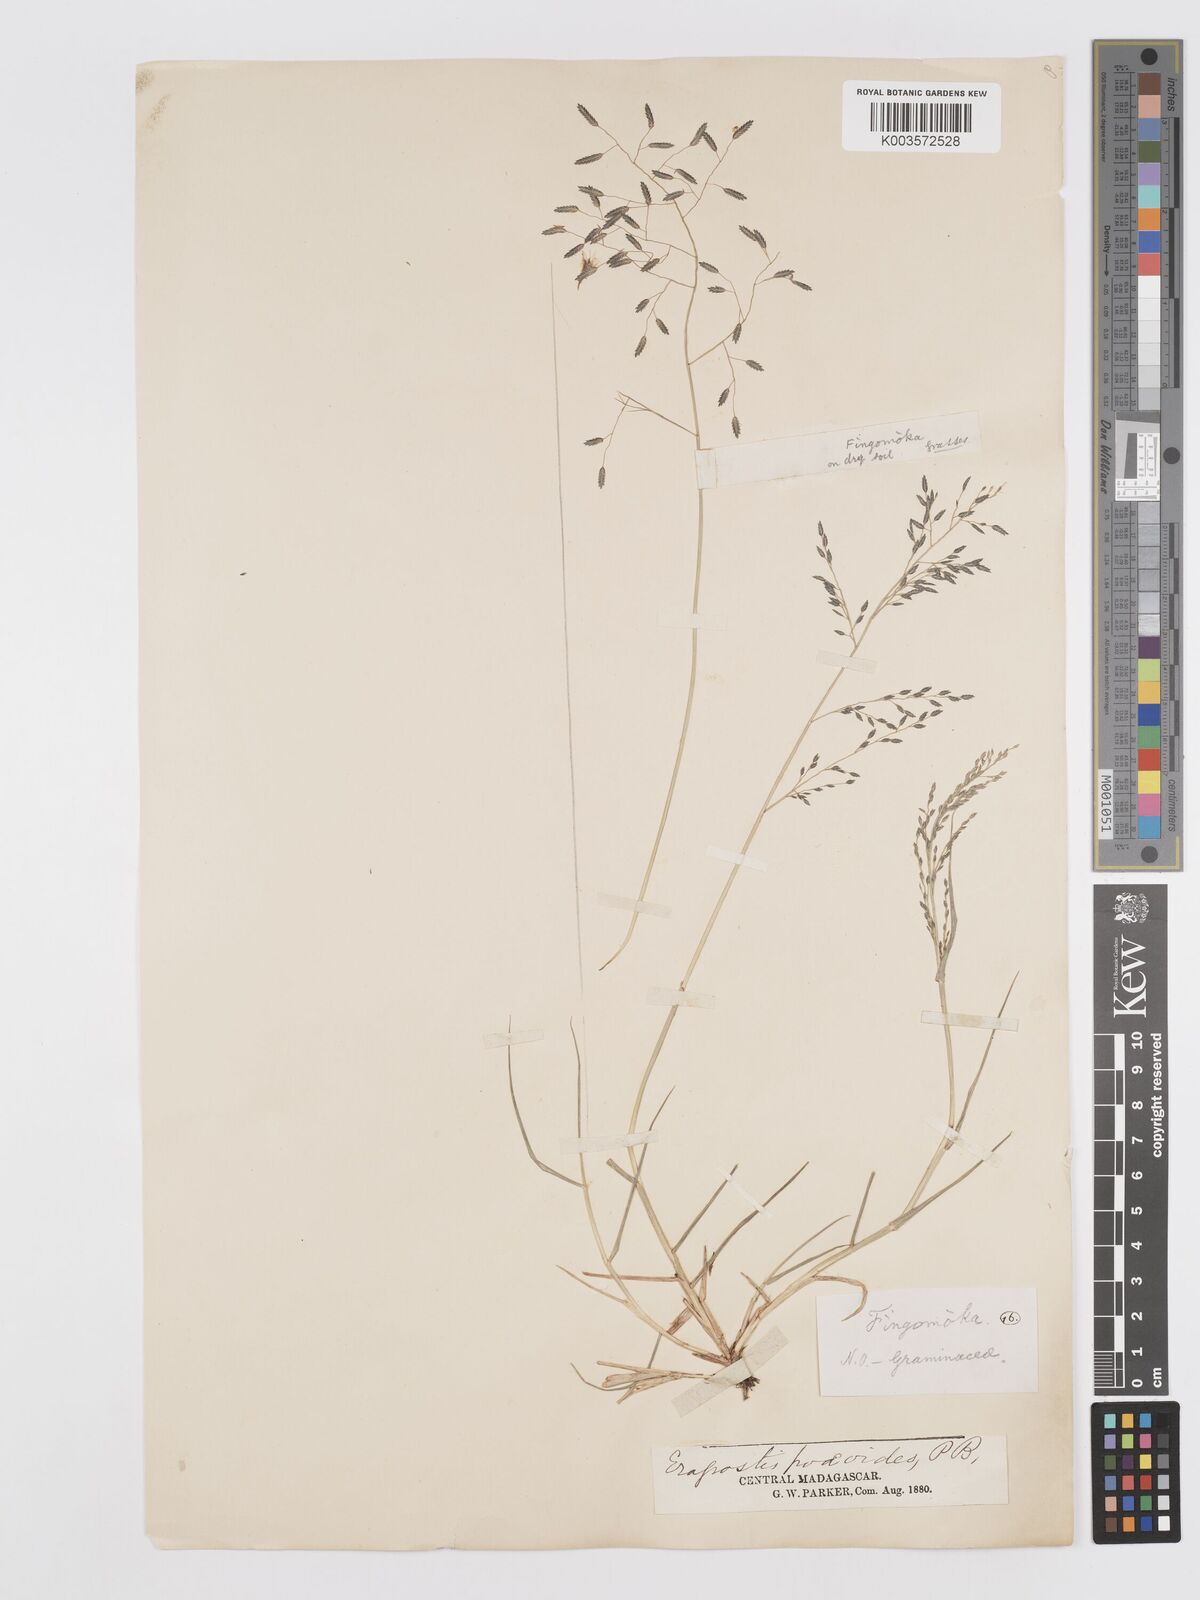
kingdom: Plantae
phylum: Tracheophyta
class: Liliopsida
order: Poales
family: Poaceae
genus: Eragrostis
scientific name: Eragrostis hildebrandtii
